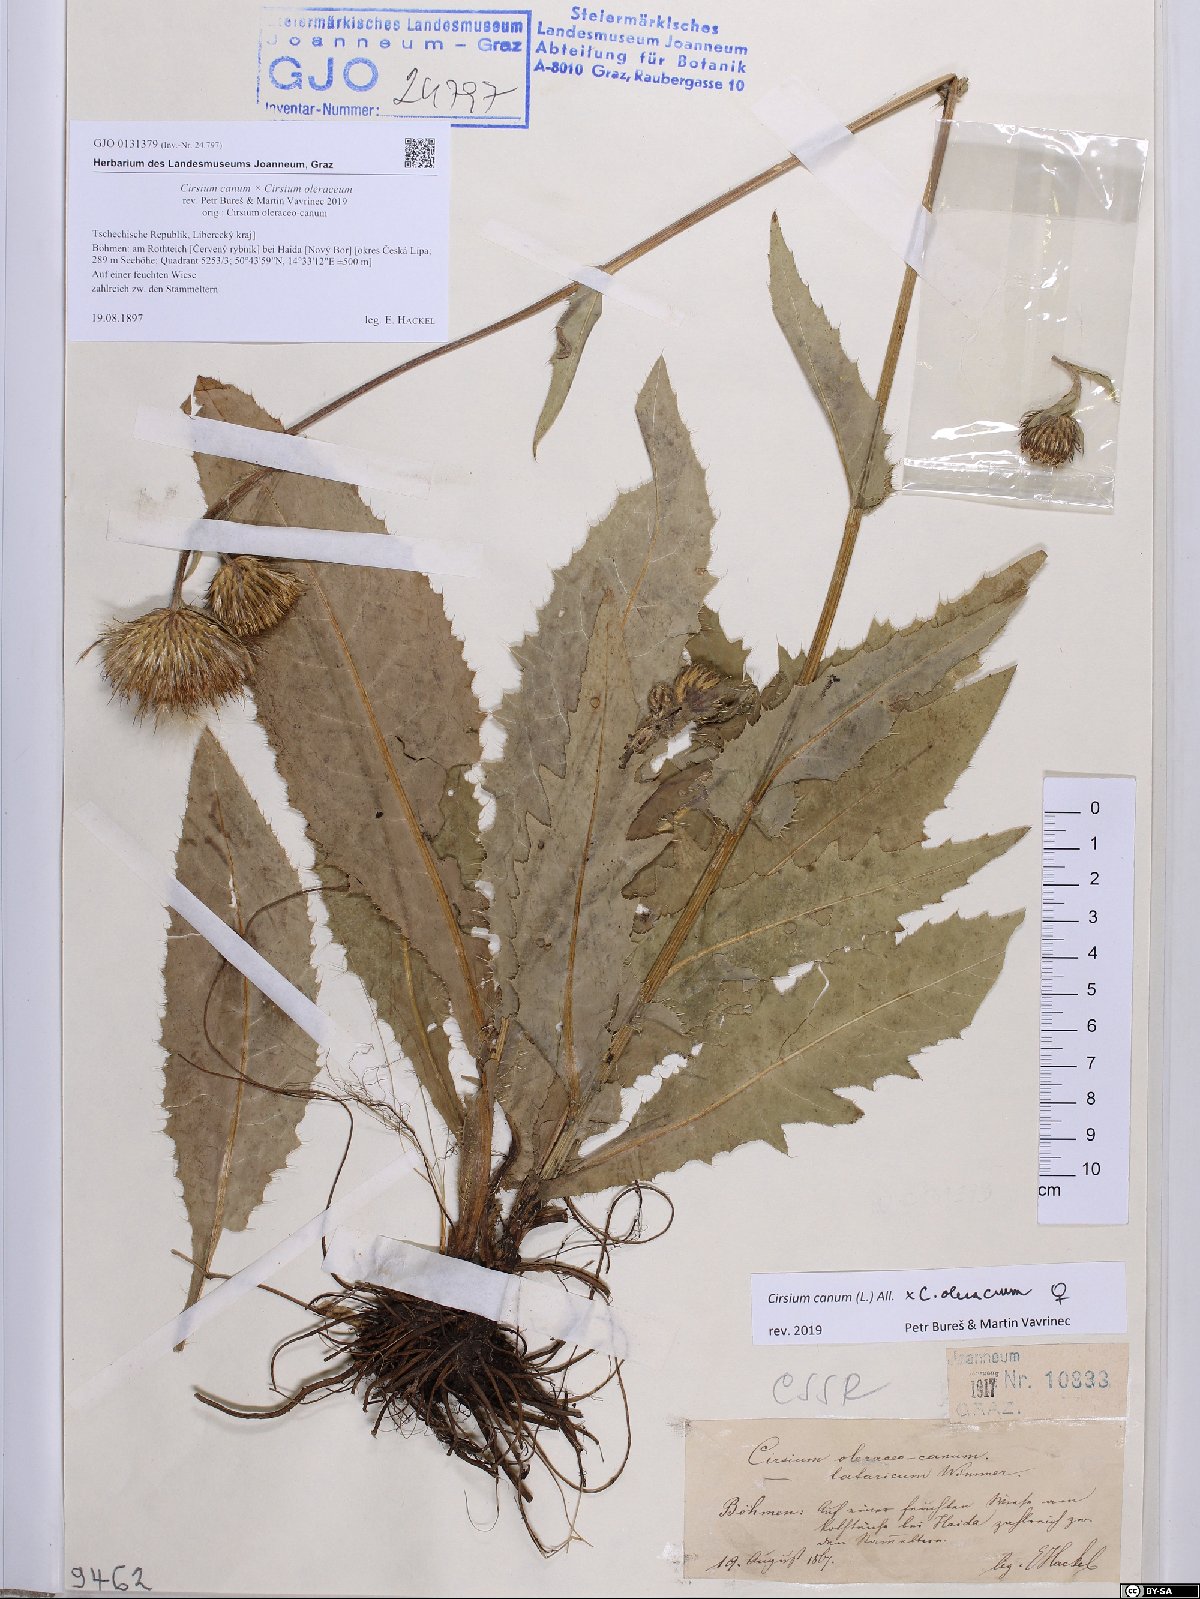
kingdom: Plantae
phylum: Tracheophyta
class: Magnoliopsida
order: Asterales
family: Asteraceae
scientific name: Asteraceae
